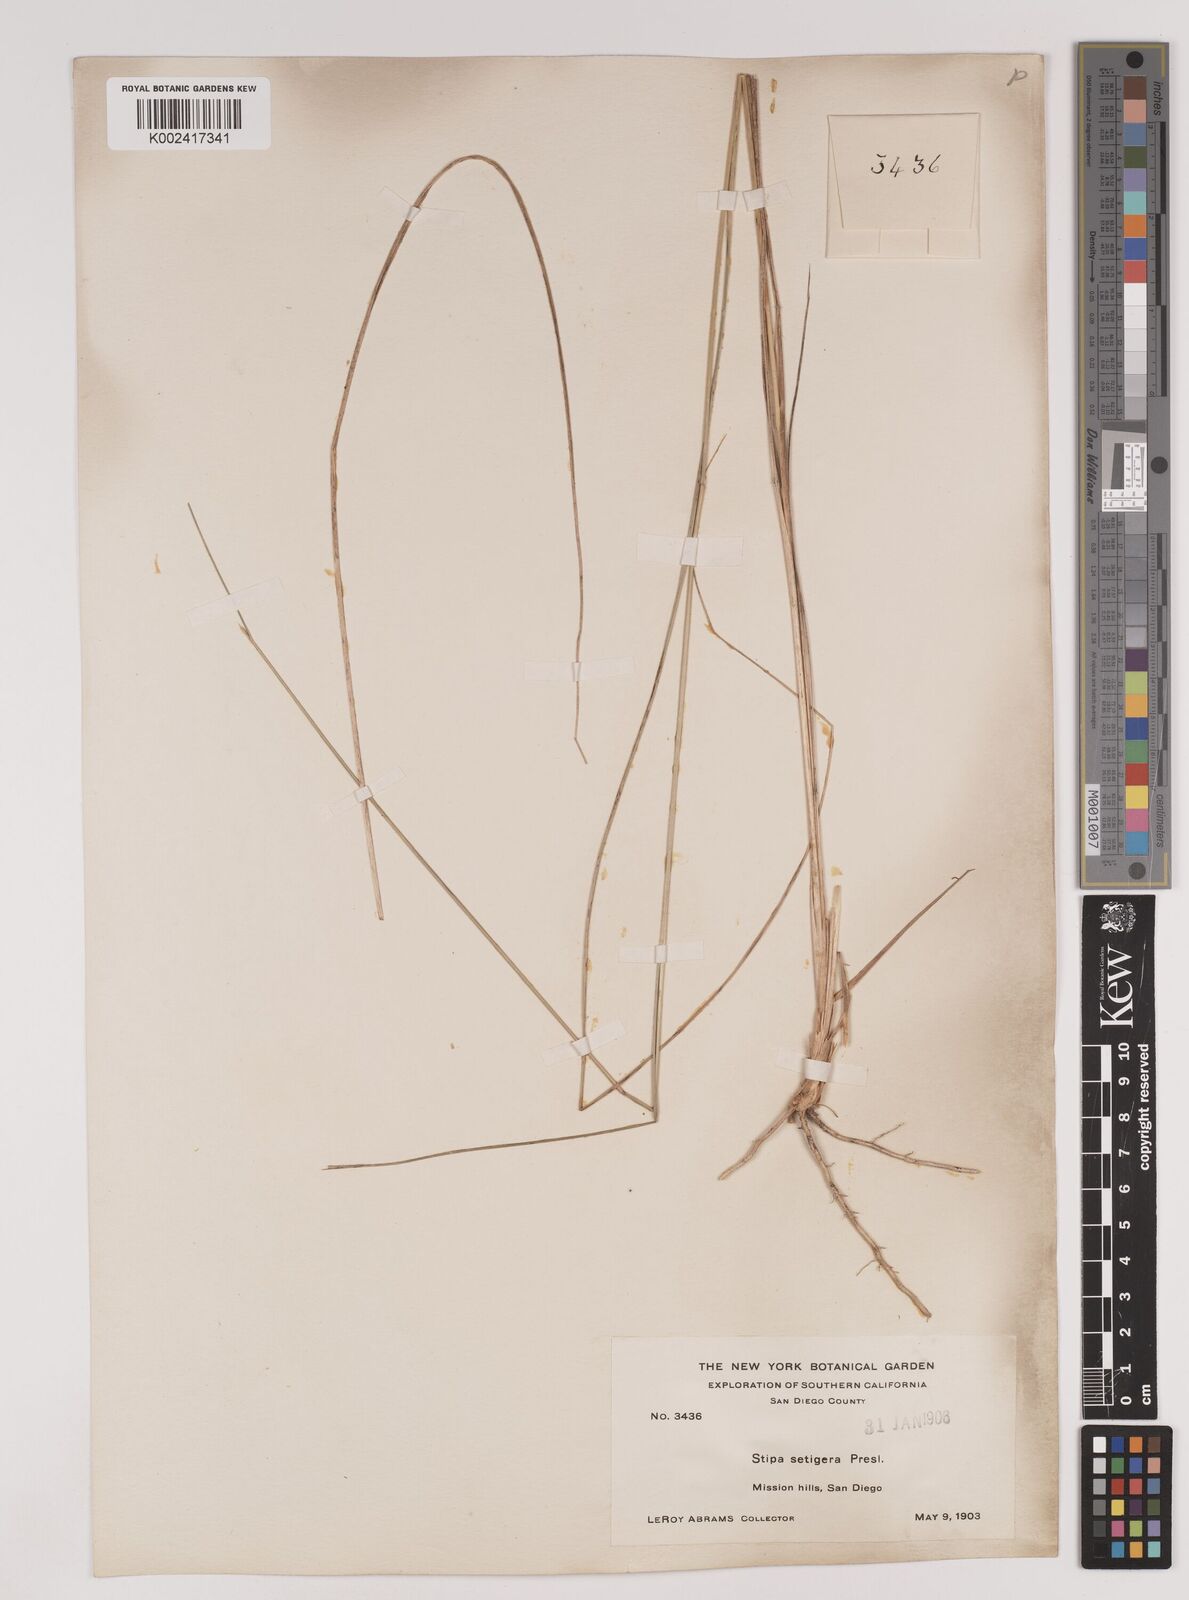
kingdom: Plantae
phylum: Tracheophyta
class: Liliopsida
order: Poales
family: Poaceae
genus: Nassella
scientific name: Nassella pulchra
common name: Purple needlegrass
